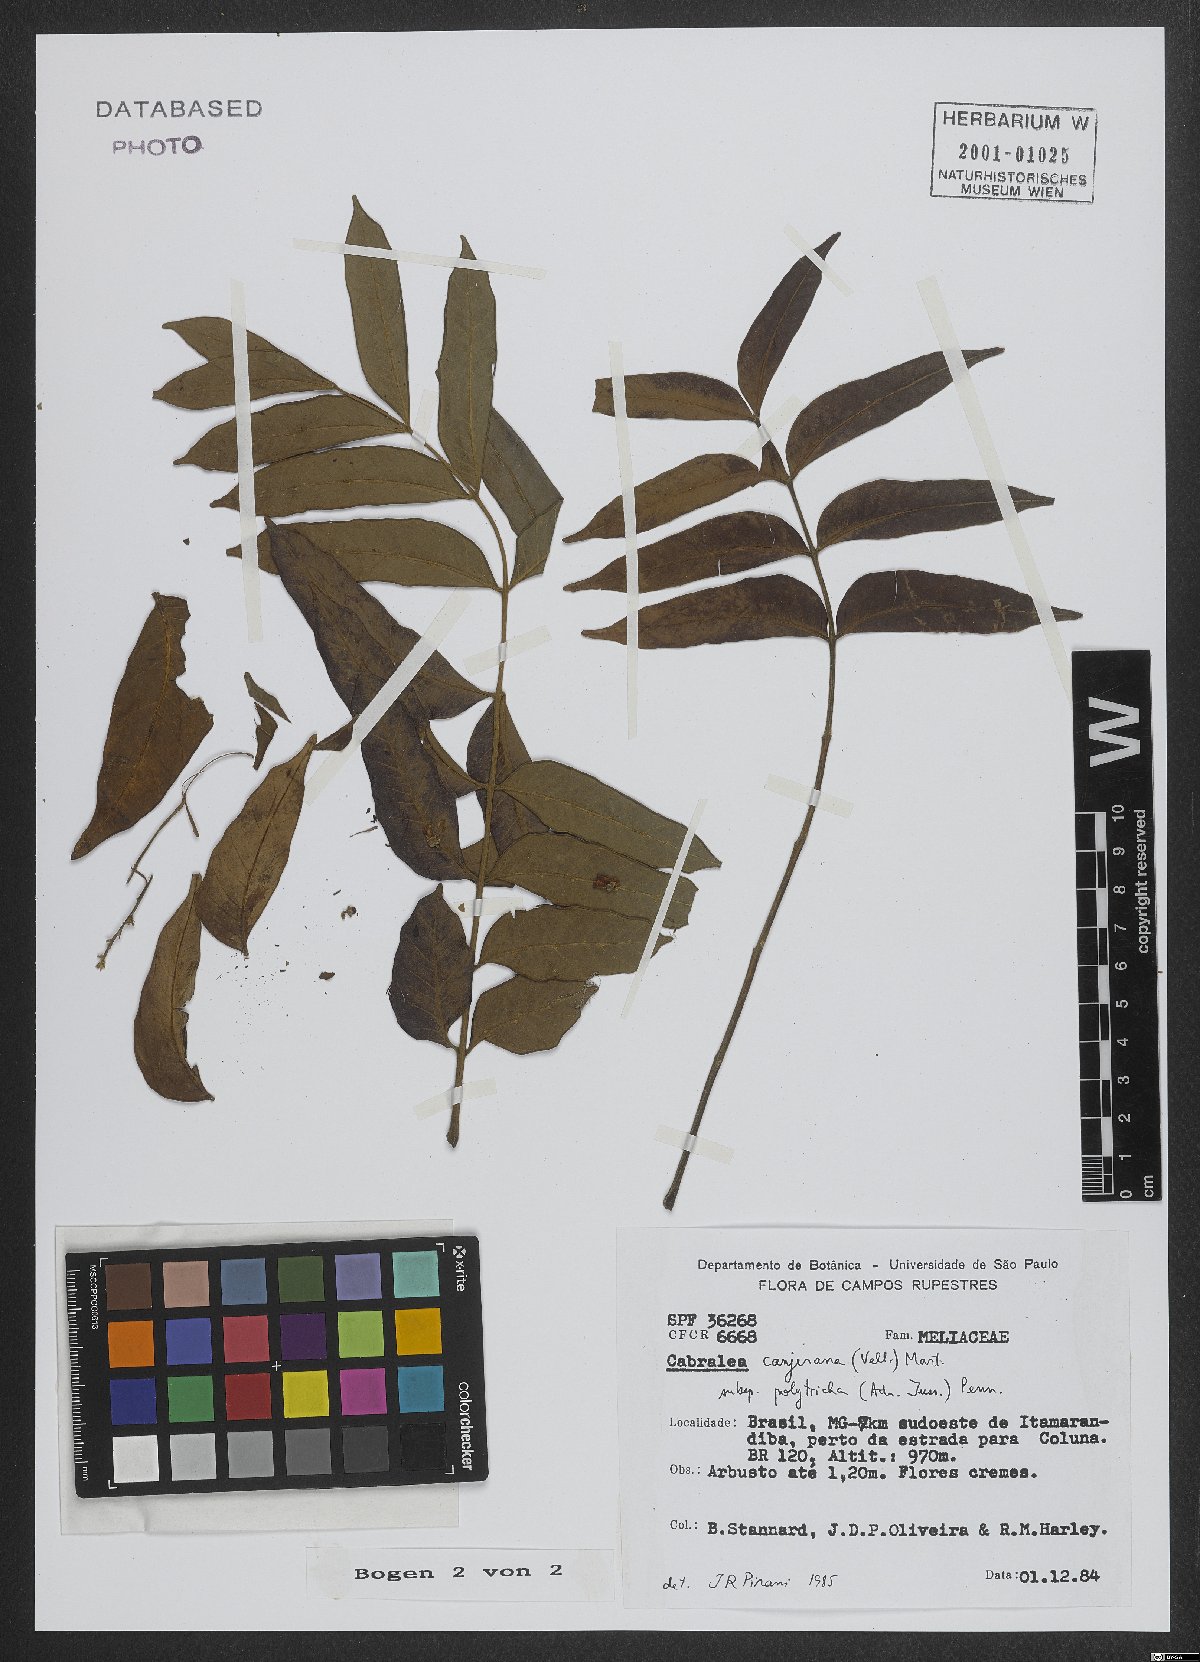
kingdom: Plantae
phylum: Tracheophyta
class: Magnoliopsida
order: Sapindales
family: Meliaceae
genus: Cabralea
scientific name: Cabralea canjerana
